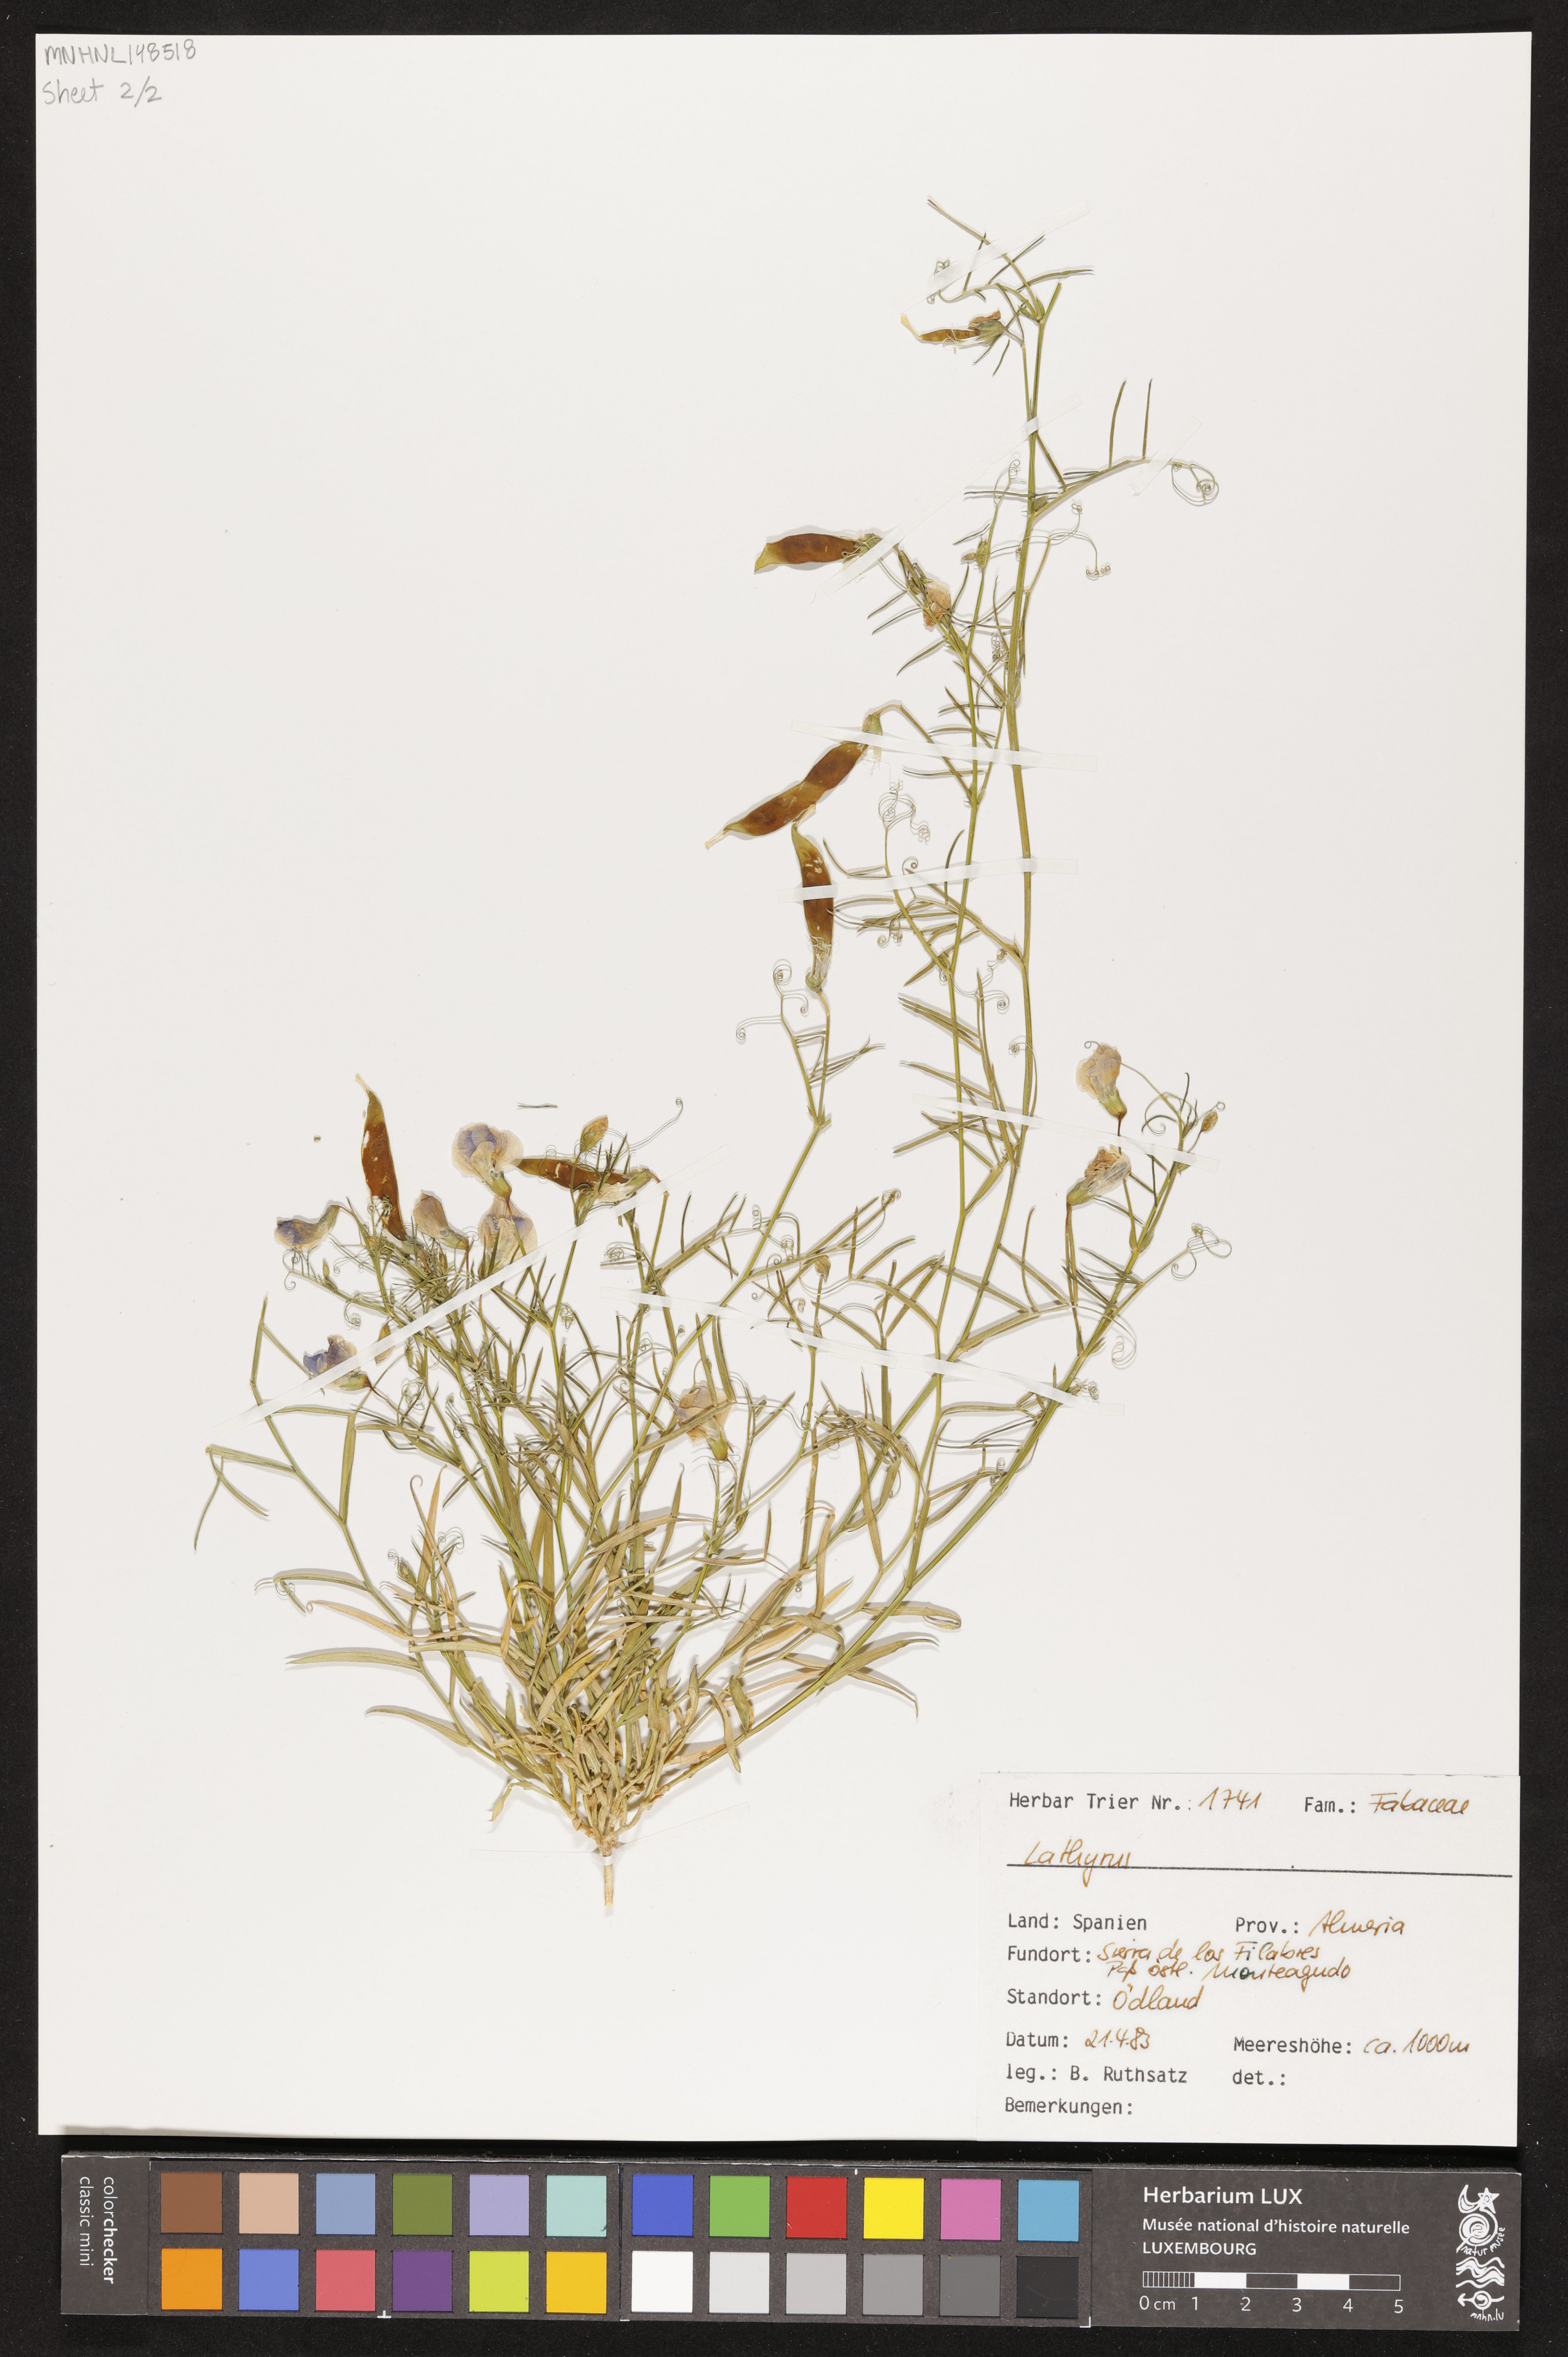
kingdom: Plantae
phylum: Tracheophyta
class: Magnoliopsida
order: Fabales
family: Fabaceae
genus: Lathyrus
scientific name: Lathyrus
